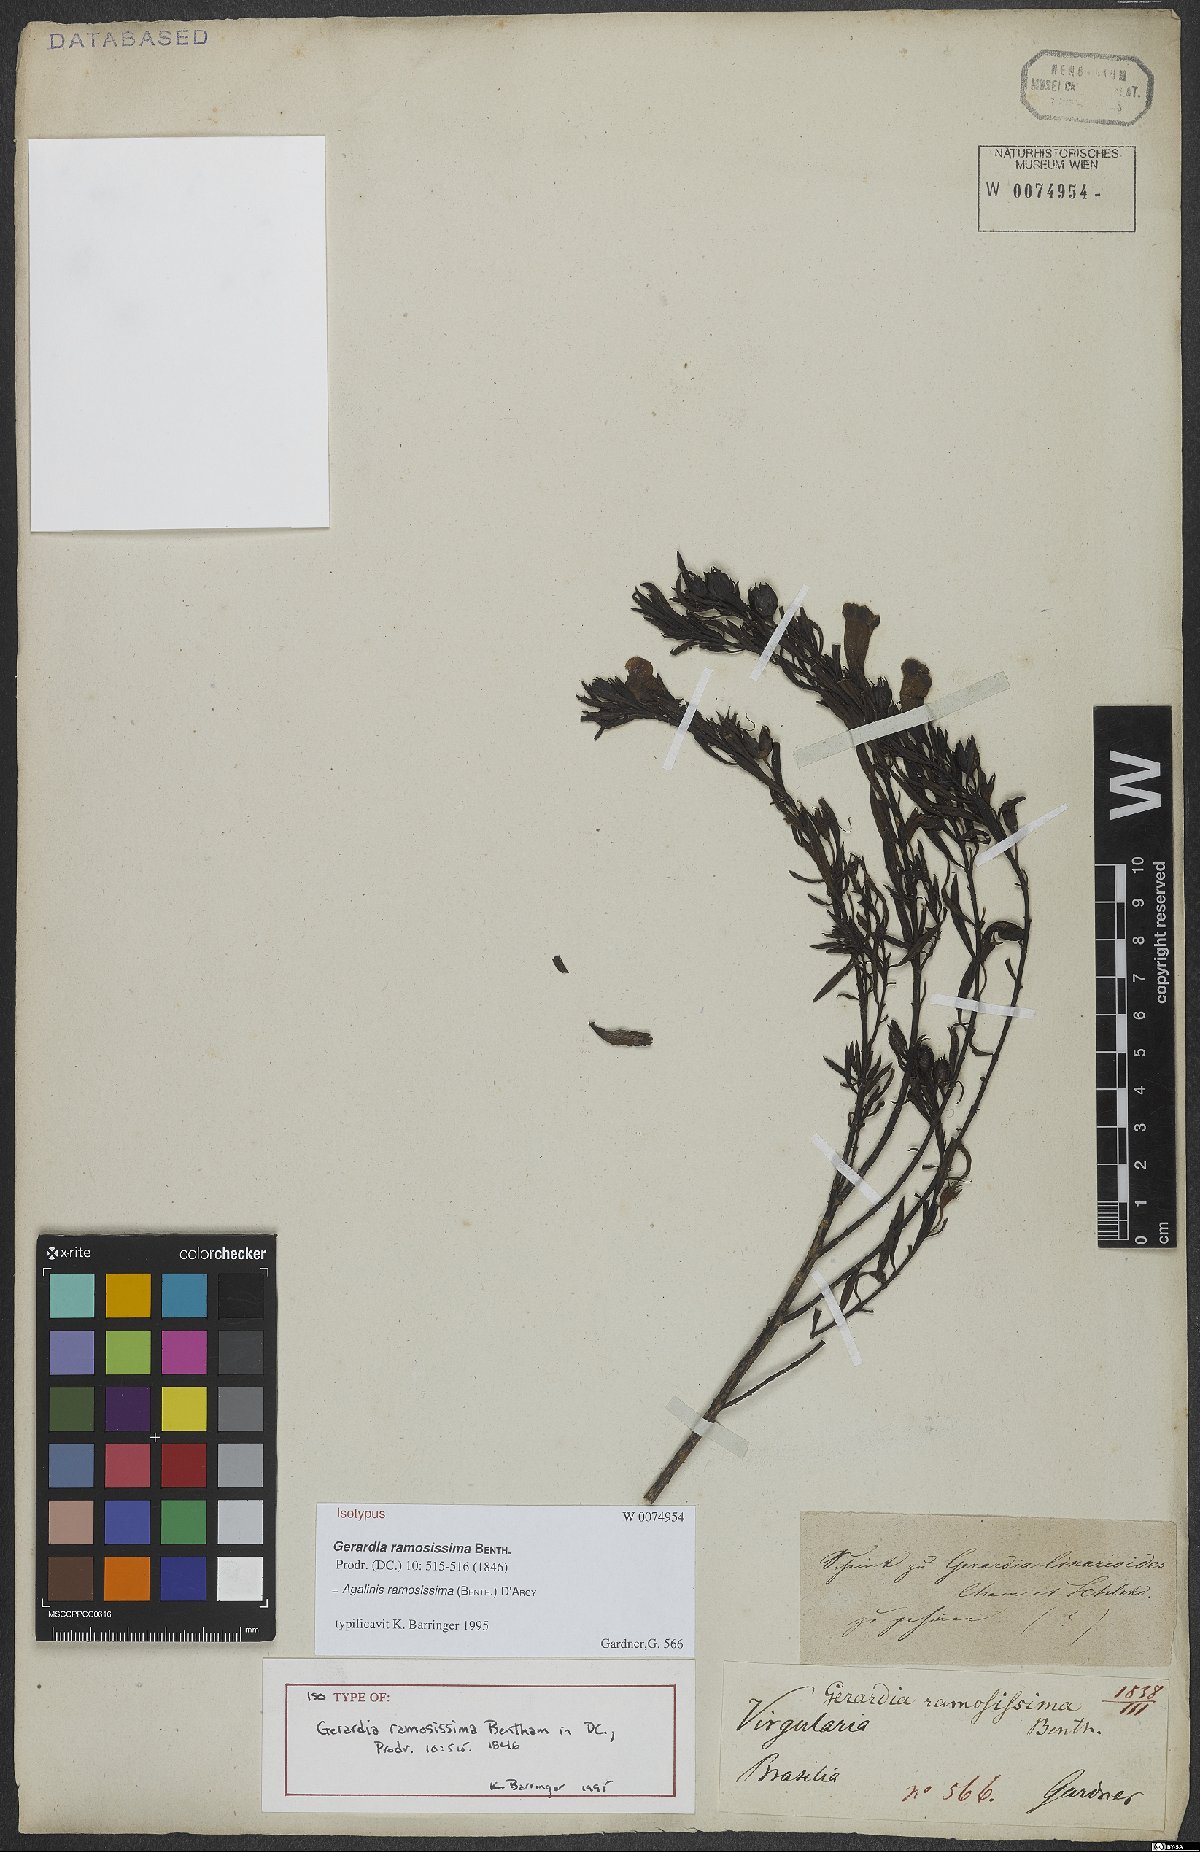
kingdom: Plantae
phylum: Tracheophyta
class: Magnoliopsida
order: Lamiales
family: Scrophulariaceae
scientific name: Scrophulariaceae
